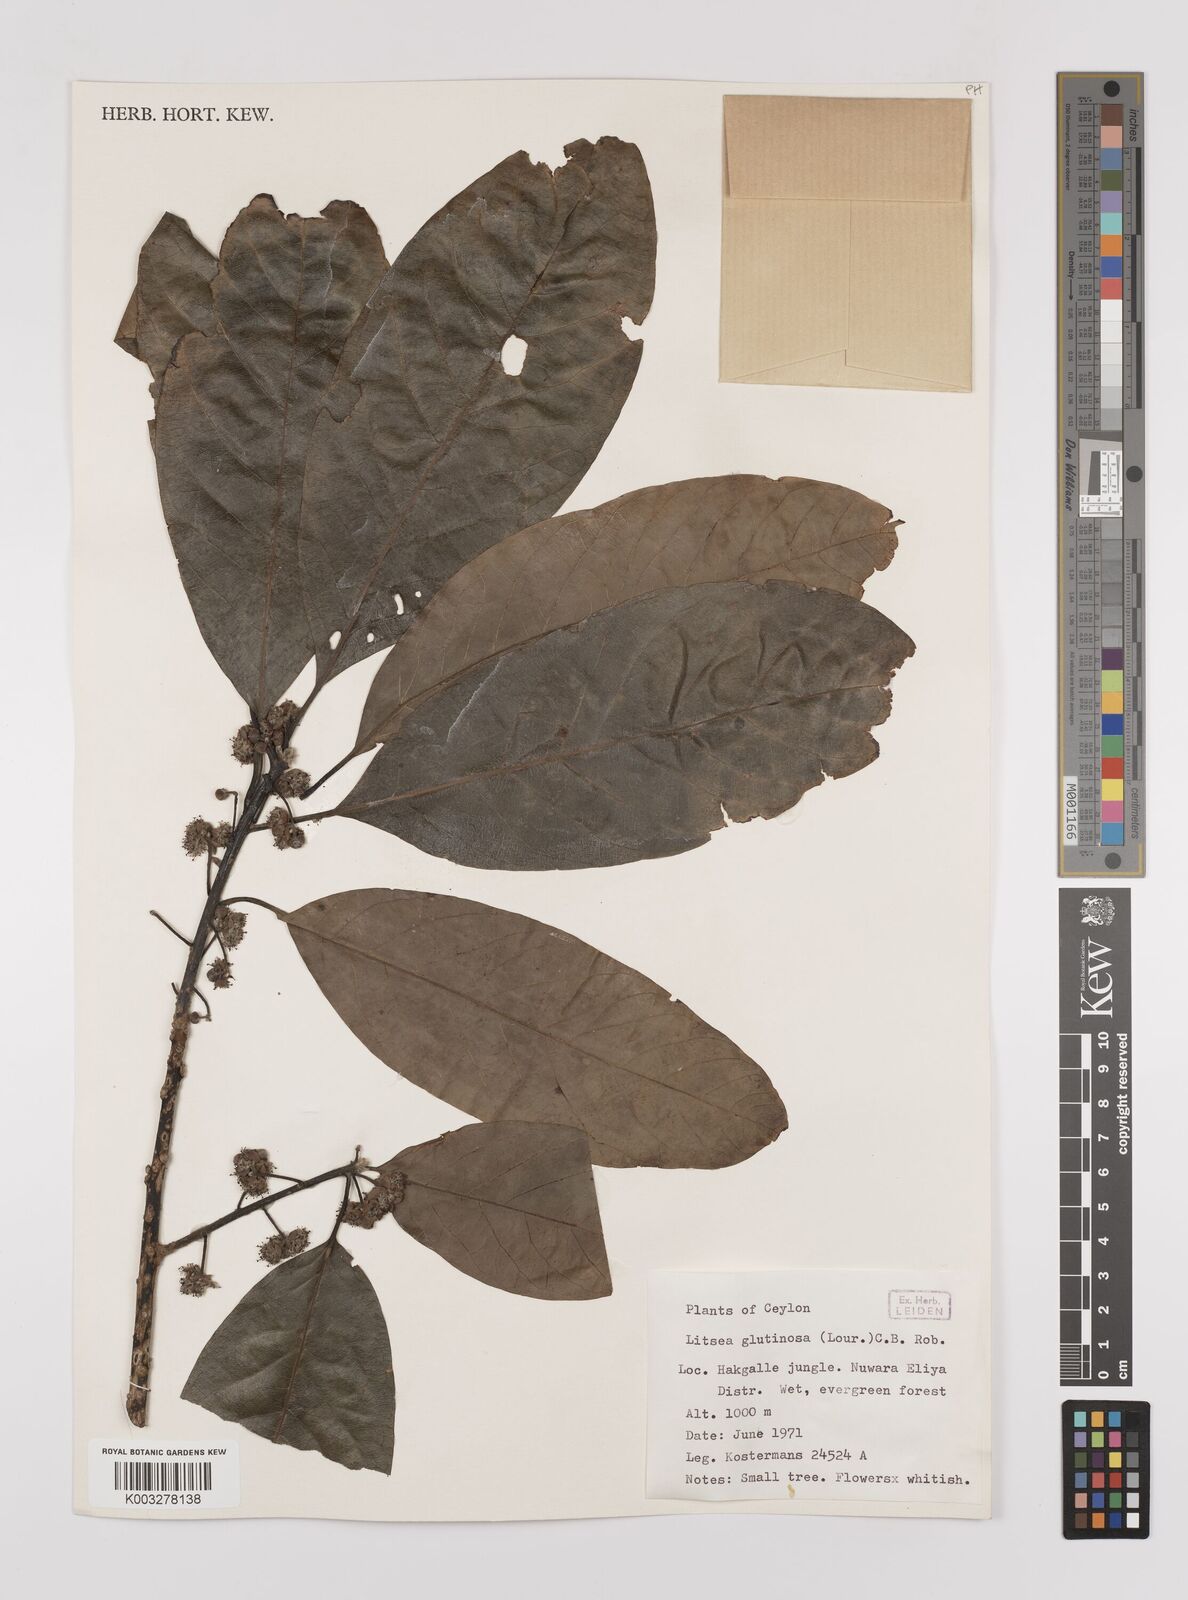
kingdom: Plantae
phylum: Tracheophyta
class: Magnoliopsida
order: Laurales
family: Lauraceae
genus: Litsea
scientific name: Litsea
